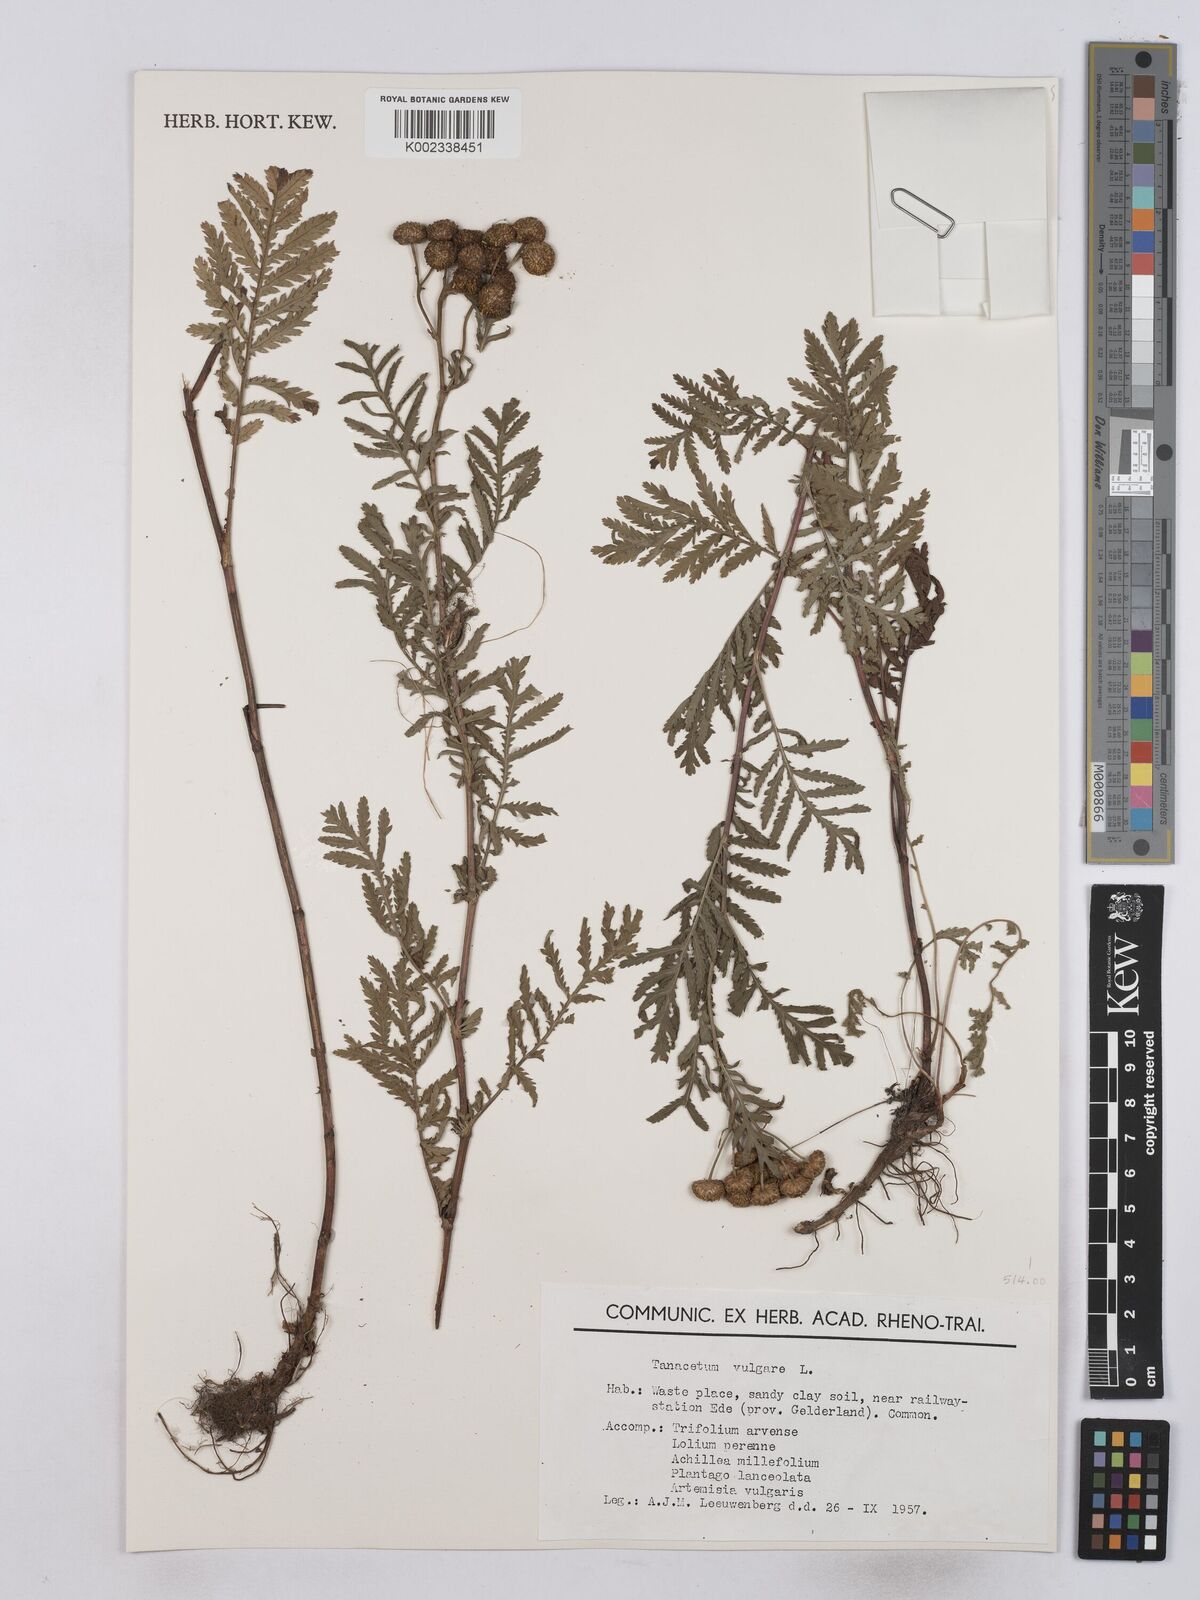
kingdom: Plantae
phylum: Tracheophyta
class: Magnoliopsida
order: Asterales
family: Asteraceae
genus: Tanacetum
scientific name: Tanacetum vulgare
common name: Common tansy
